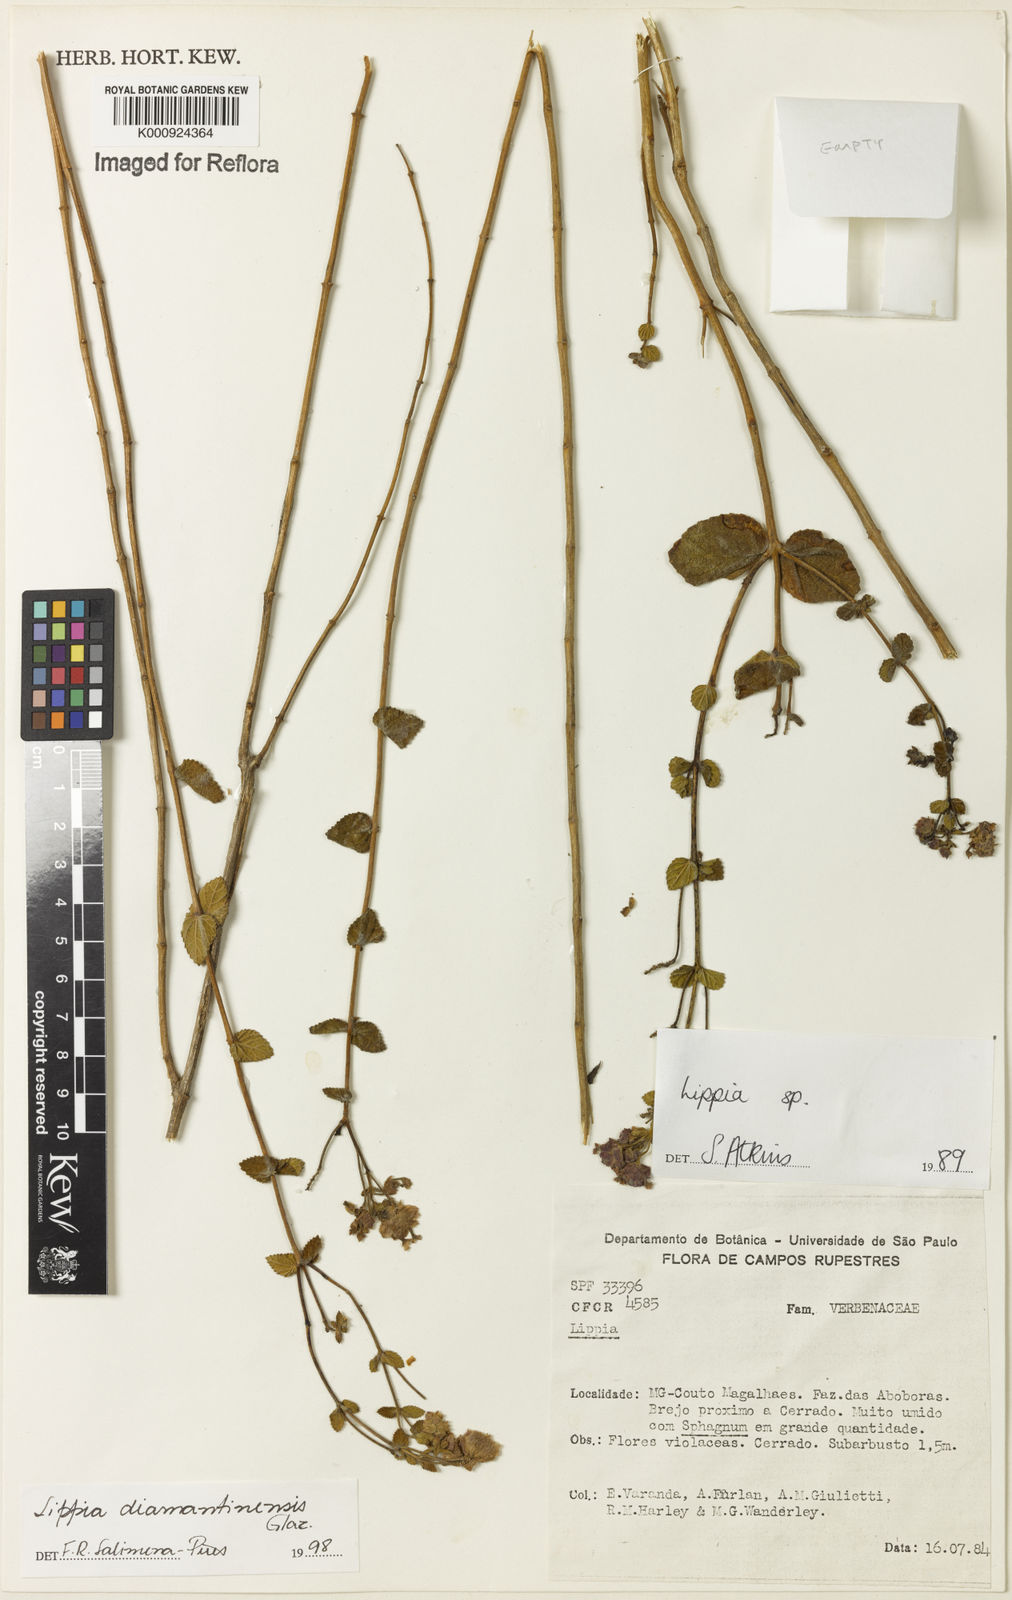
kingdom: Plantae
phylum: Tracheophyta
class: Magnoliopsida
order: Lamiales
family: Verbenaceae
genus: Lippia
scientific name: Lippia diamantinensis
